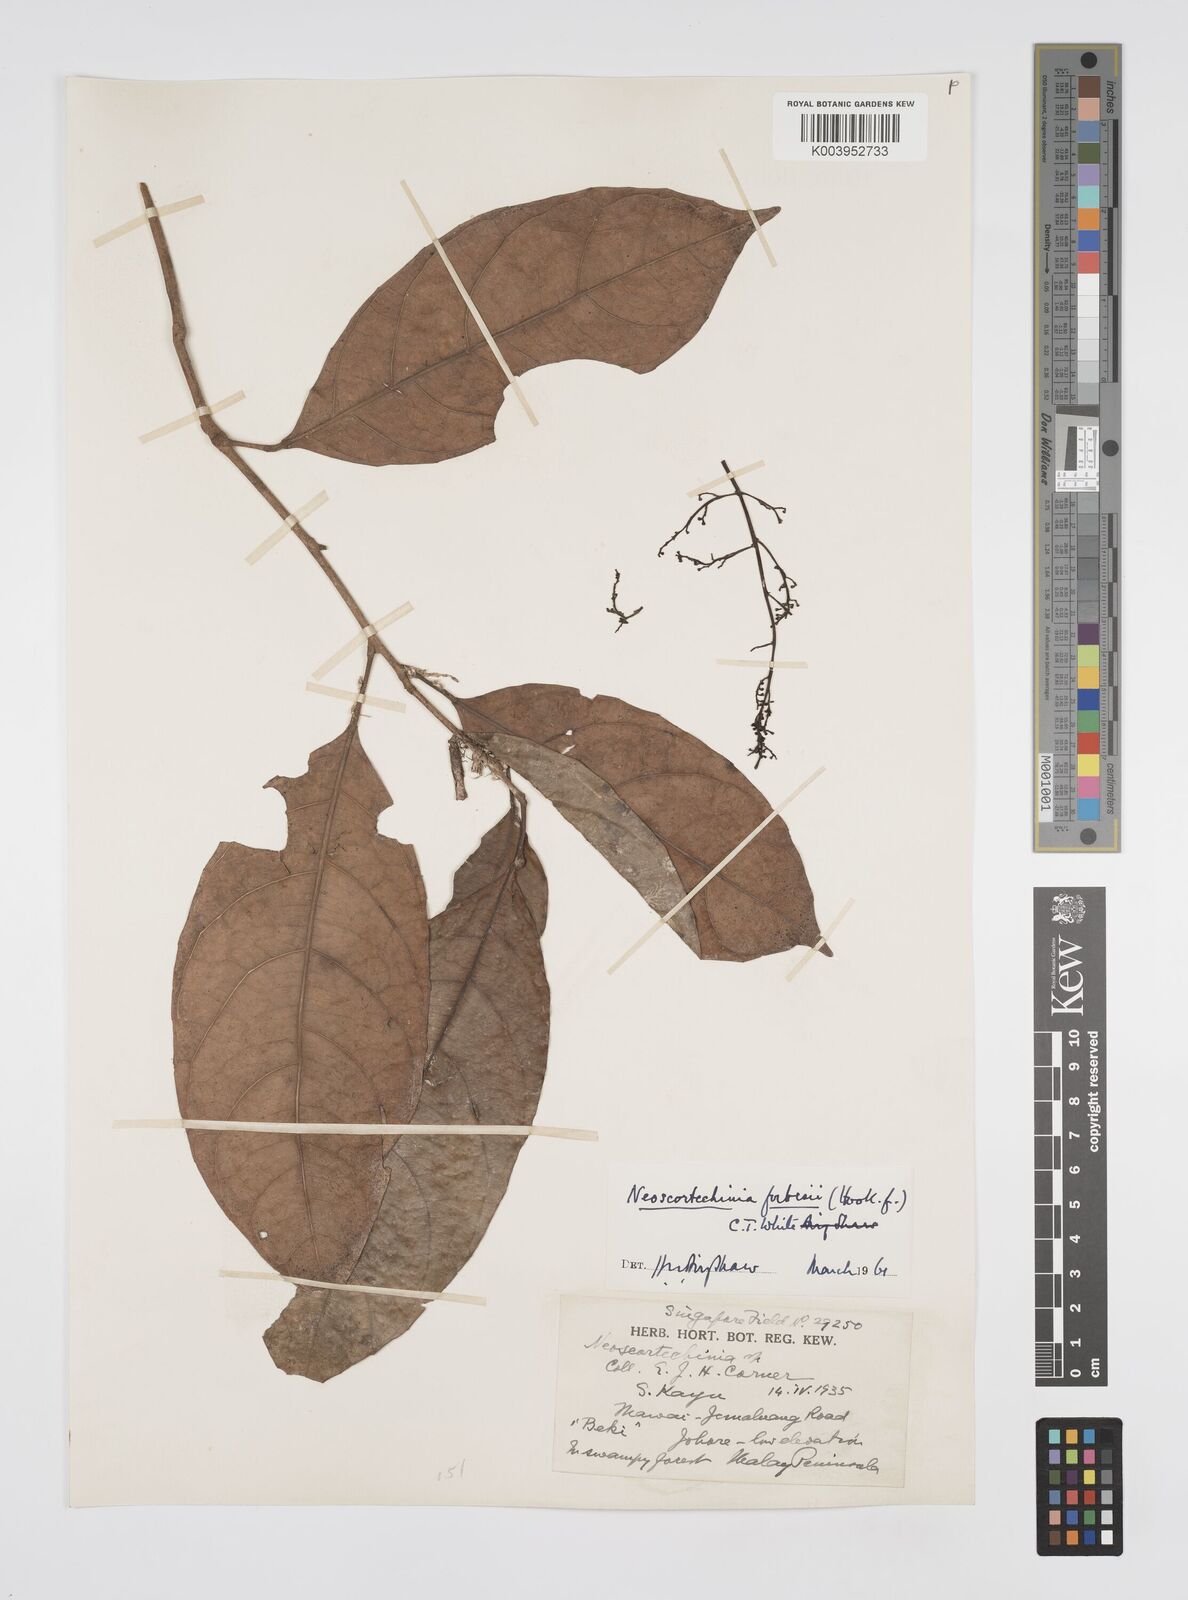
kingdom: Plantae
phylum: Tracheophyta
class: Magnoliopsida
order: Malpighiales
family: Euphorbiaceae
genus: Neoscortechinia
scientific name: Neoscortechinia philippinensis
